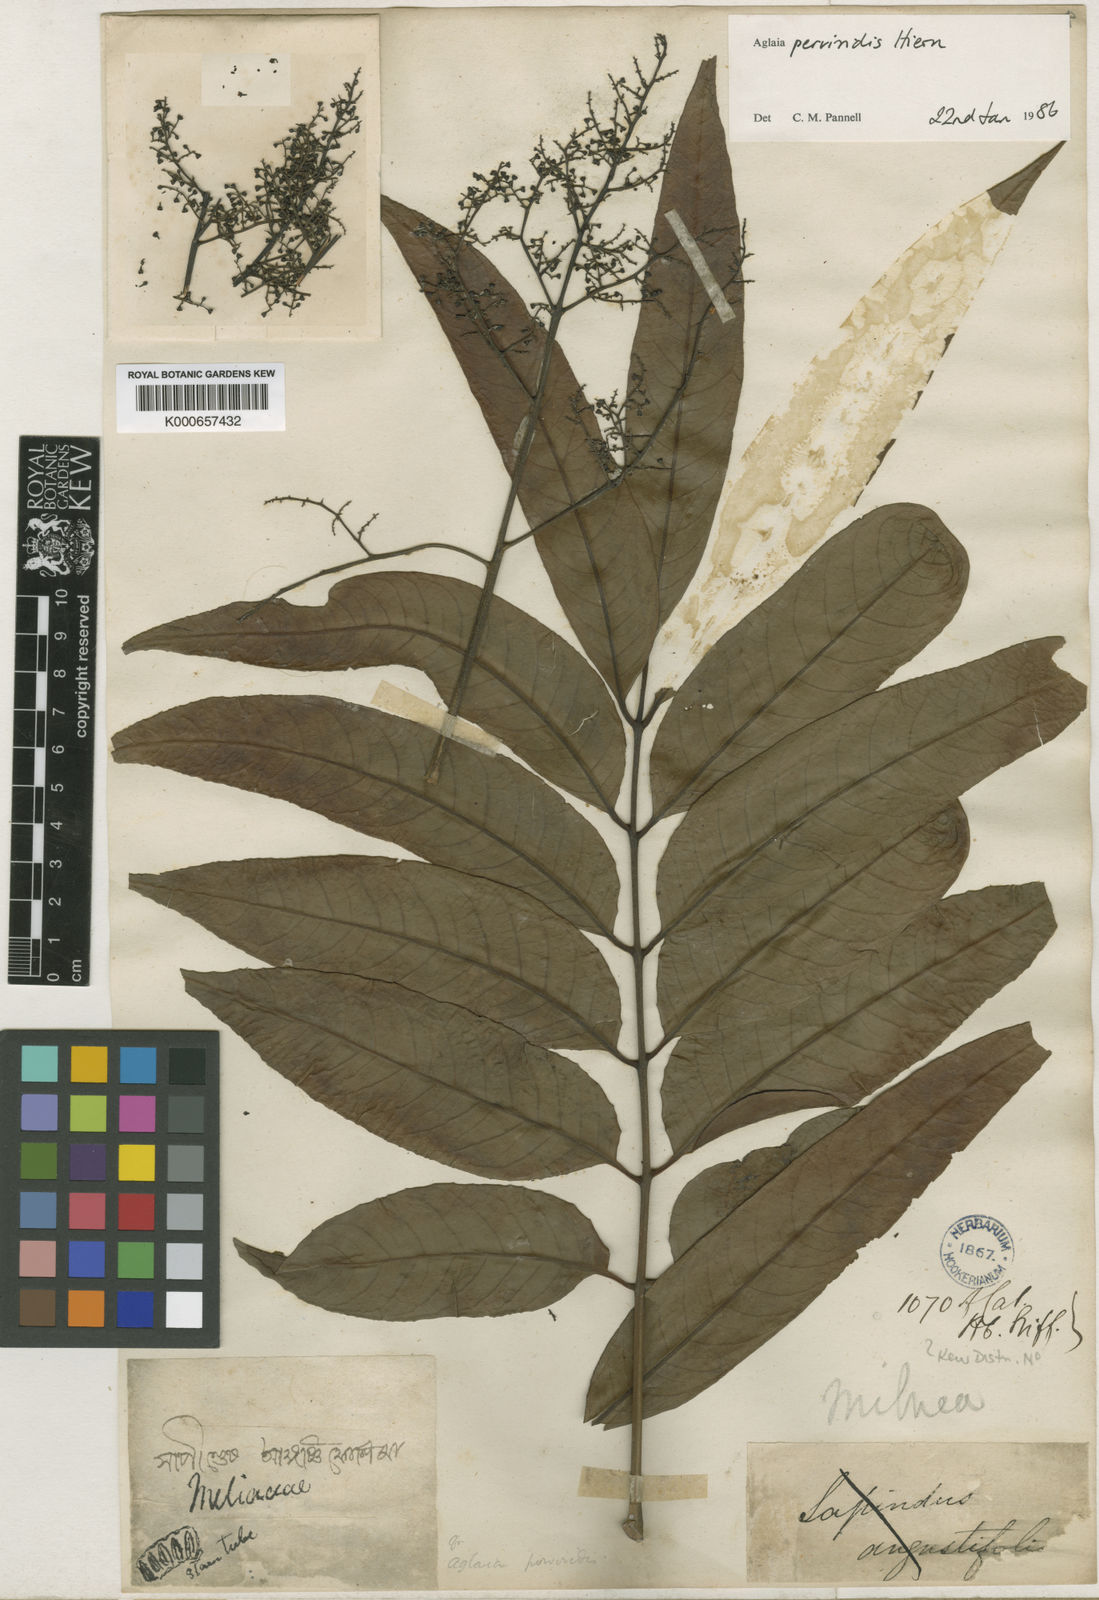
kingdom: Plantae
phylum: Tracheophyta
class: Magnoliopsida
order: Sapindales
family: Meliaceae
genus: Aglaia
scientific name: Aglaia perviridis
